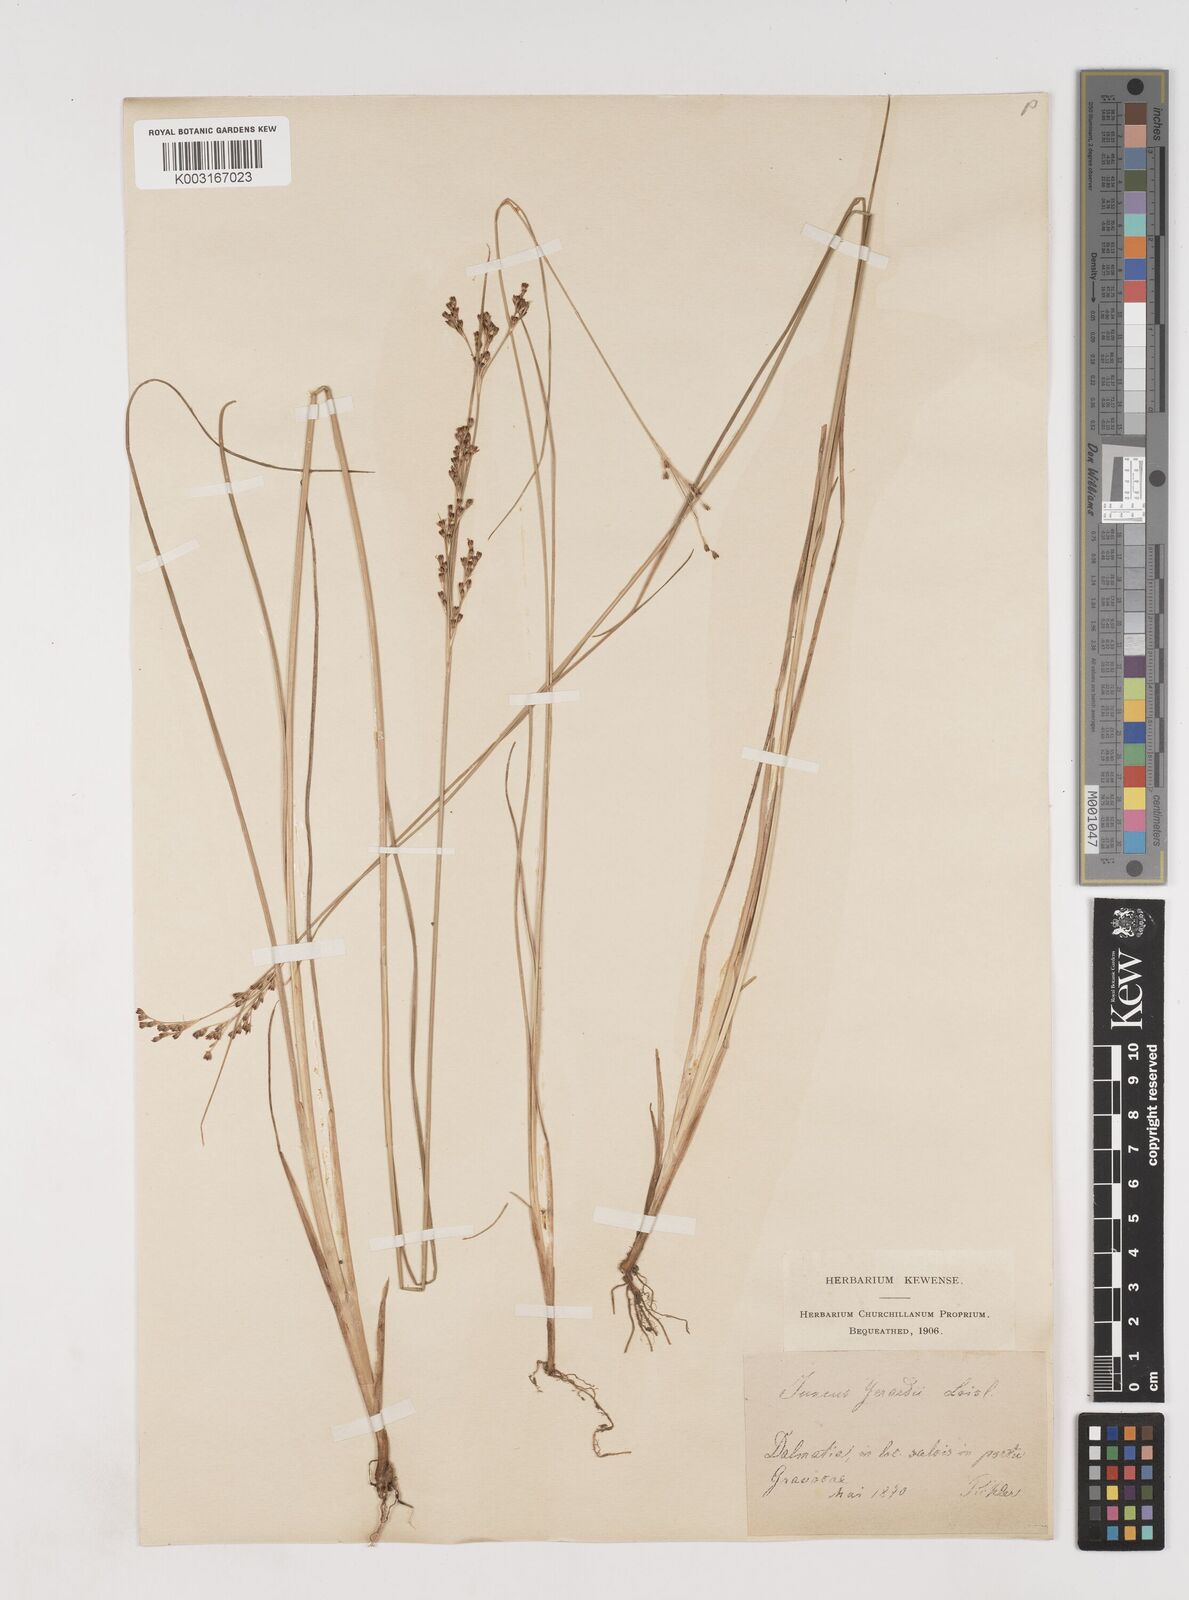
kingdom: Plantae
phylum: Tracheophyta
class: Liliopsida
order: Poales
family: Juncaceae
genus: Juncus
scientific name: Juncus gerardi
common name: Saltmarsh rush
